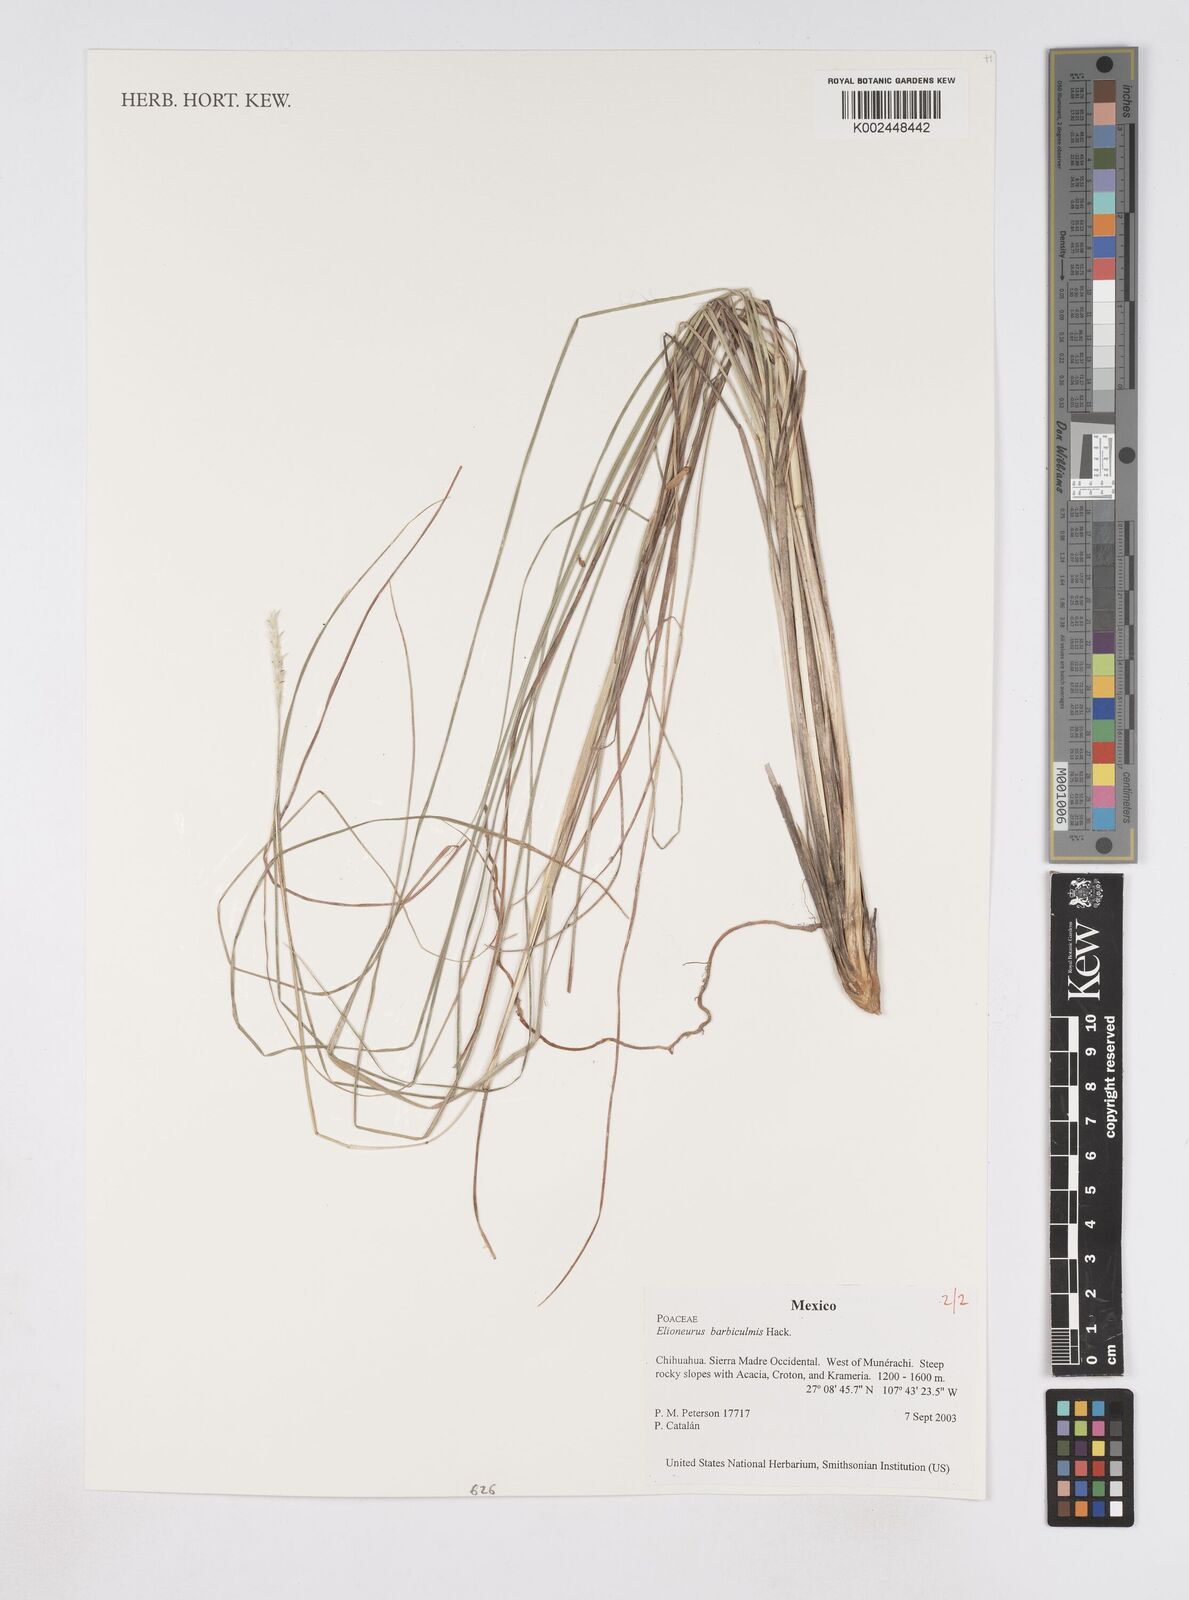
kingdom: Plantae
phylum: Tracheophyta
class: Liliopsida
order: Poales
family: Poaceae
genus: Elionurus
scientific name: Elionurus barbiculmis
